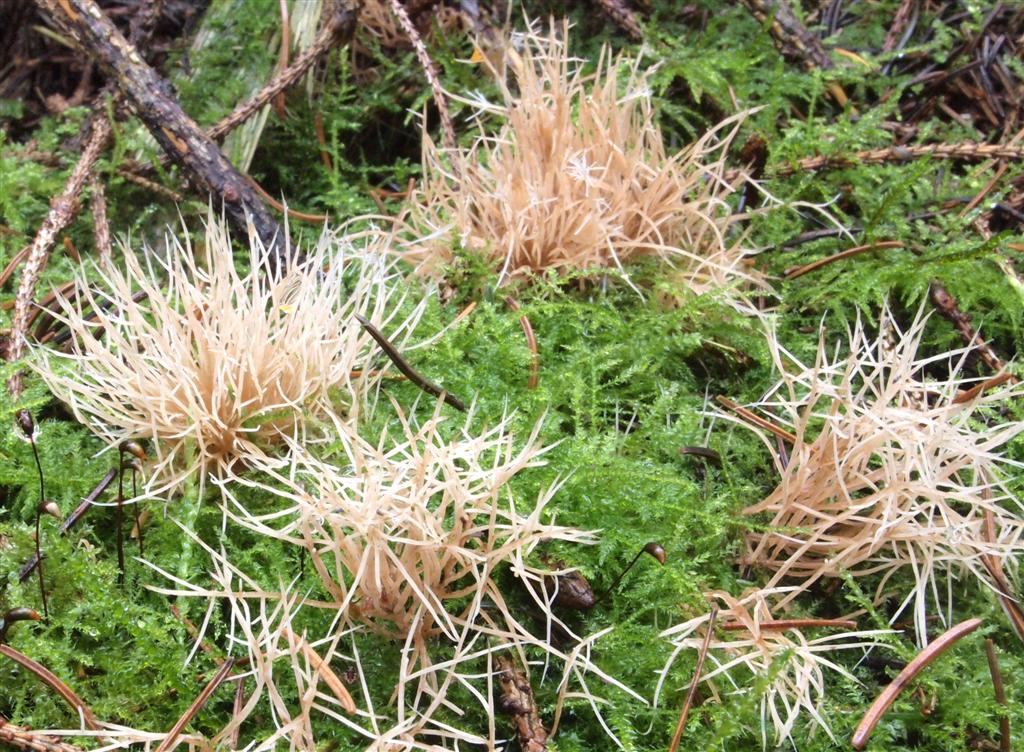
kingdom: Fungi
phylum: Basidiomycota
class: Agaricomycetes
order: Agaricales
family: Pterulaceae
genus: Pterula
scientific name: Pterula multifida
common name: busket fjerkølle
